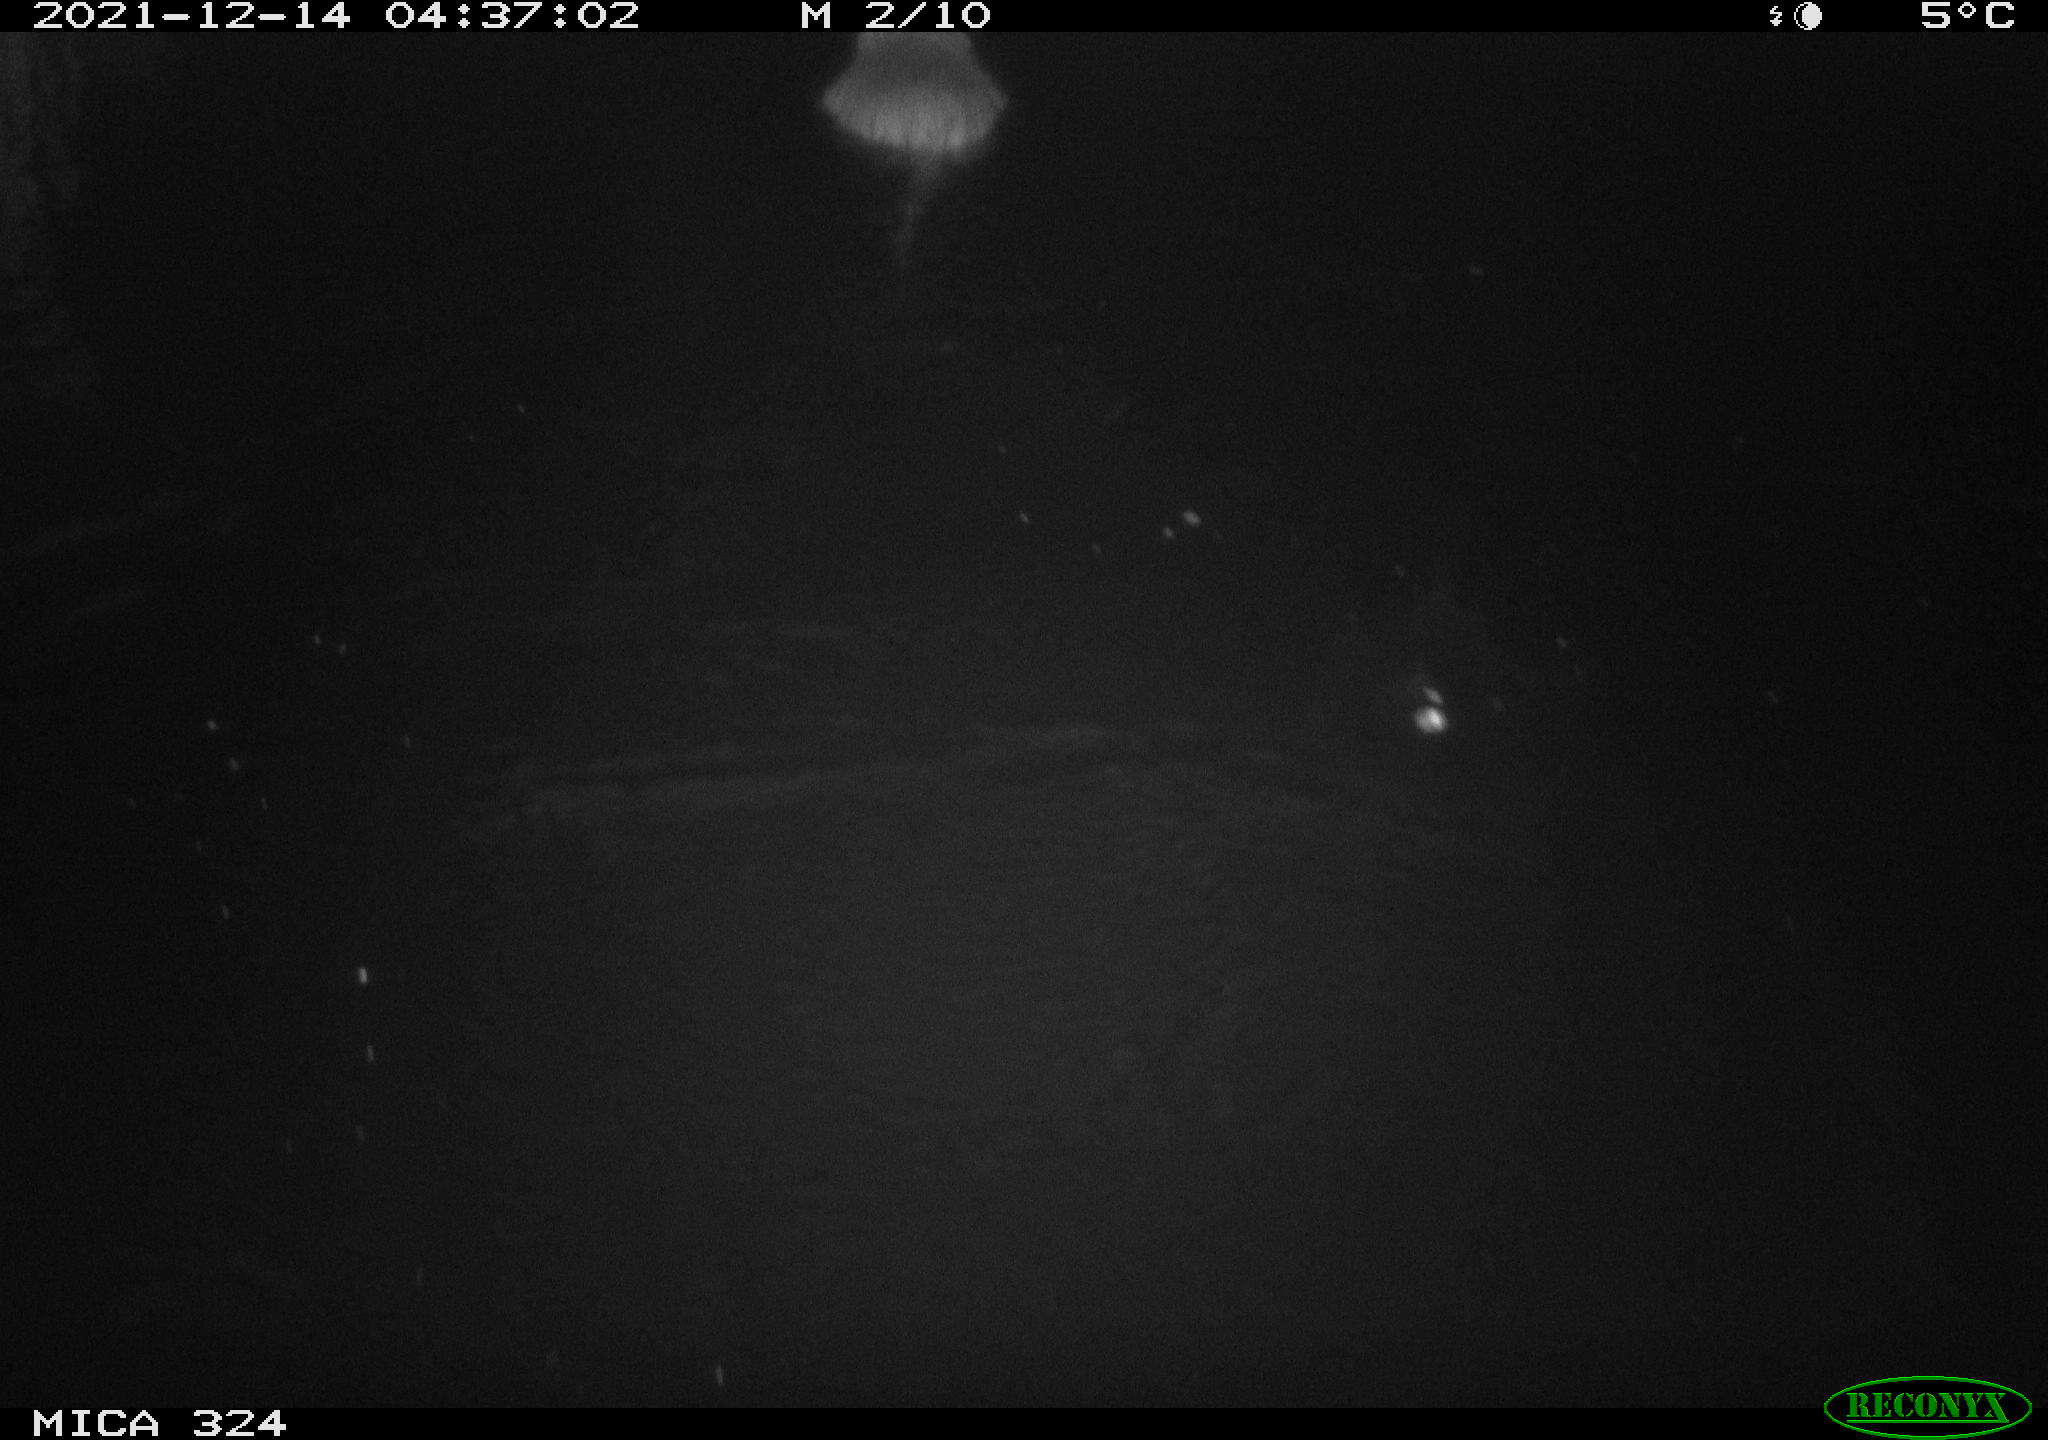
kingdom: Animalia
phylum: Chordata
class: Mammalia
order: Rodentia
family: Myocastoridae
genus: Myocastor
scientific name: Myocastor coypus
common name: Coypu
